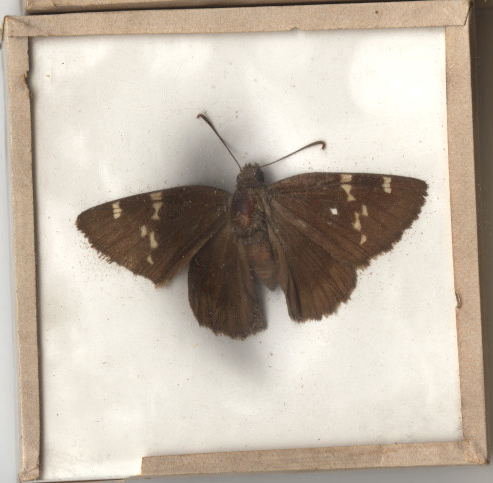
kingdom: Animalia
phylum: Arthropoda
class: Insecta
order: Lepidoptera
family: Hesperiidae
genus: Thorybes
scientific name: Thorybes daunus
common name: Southern Cloudywing
